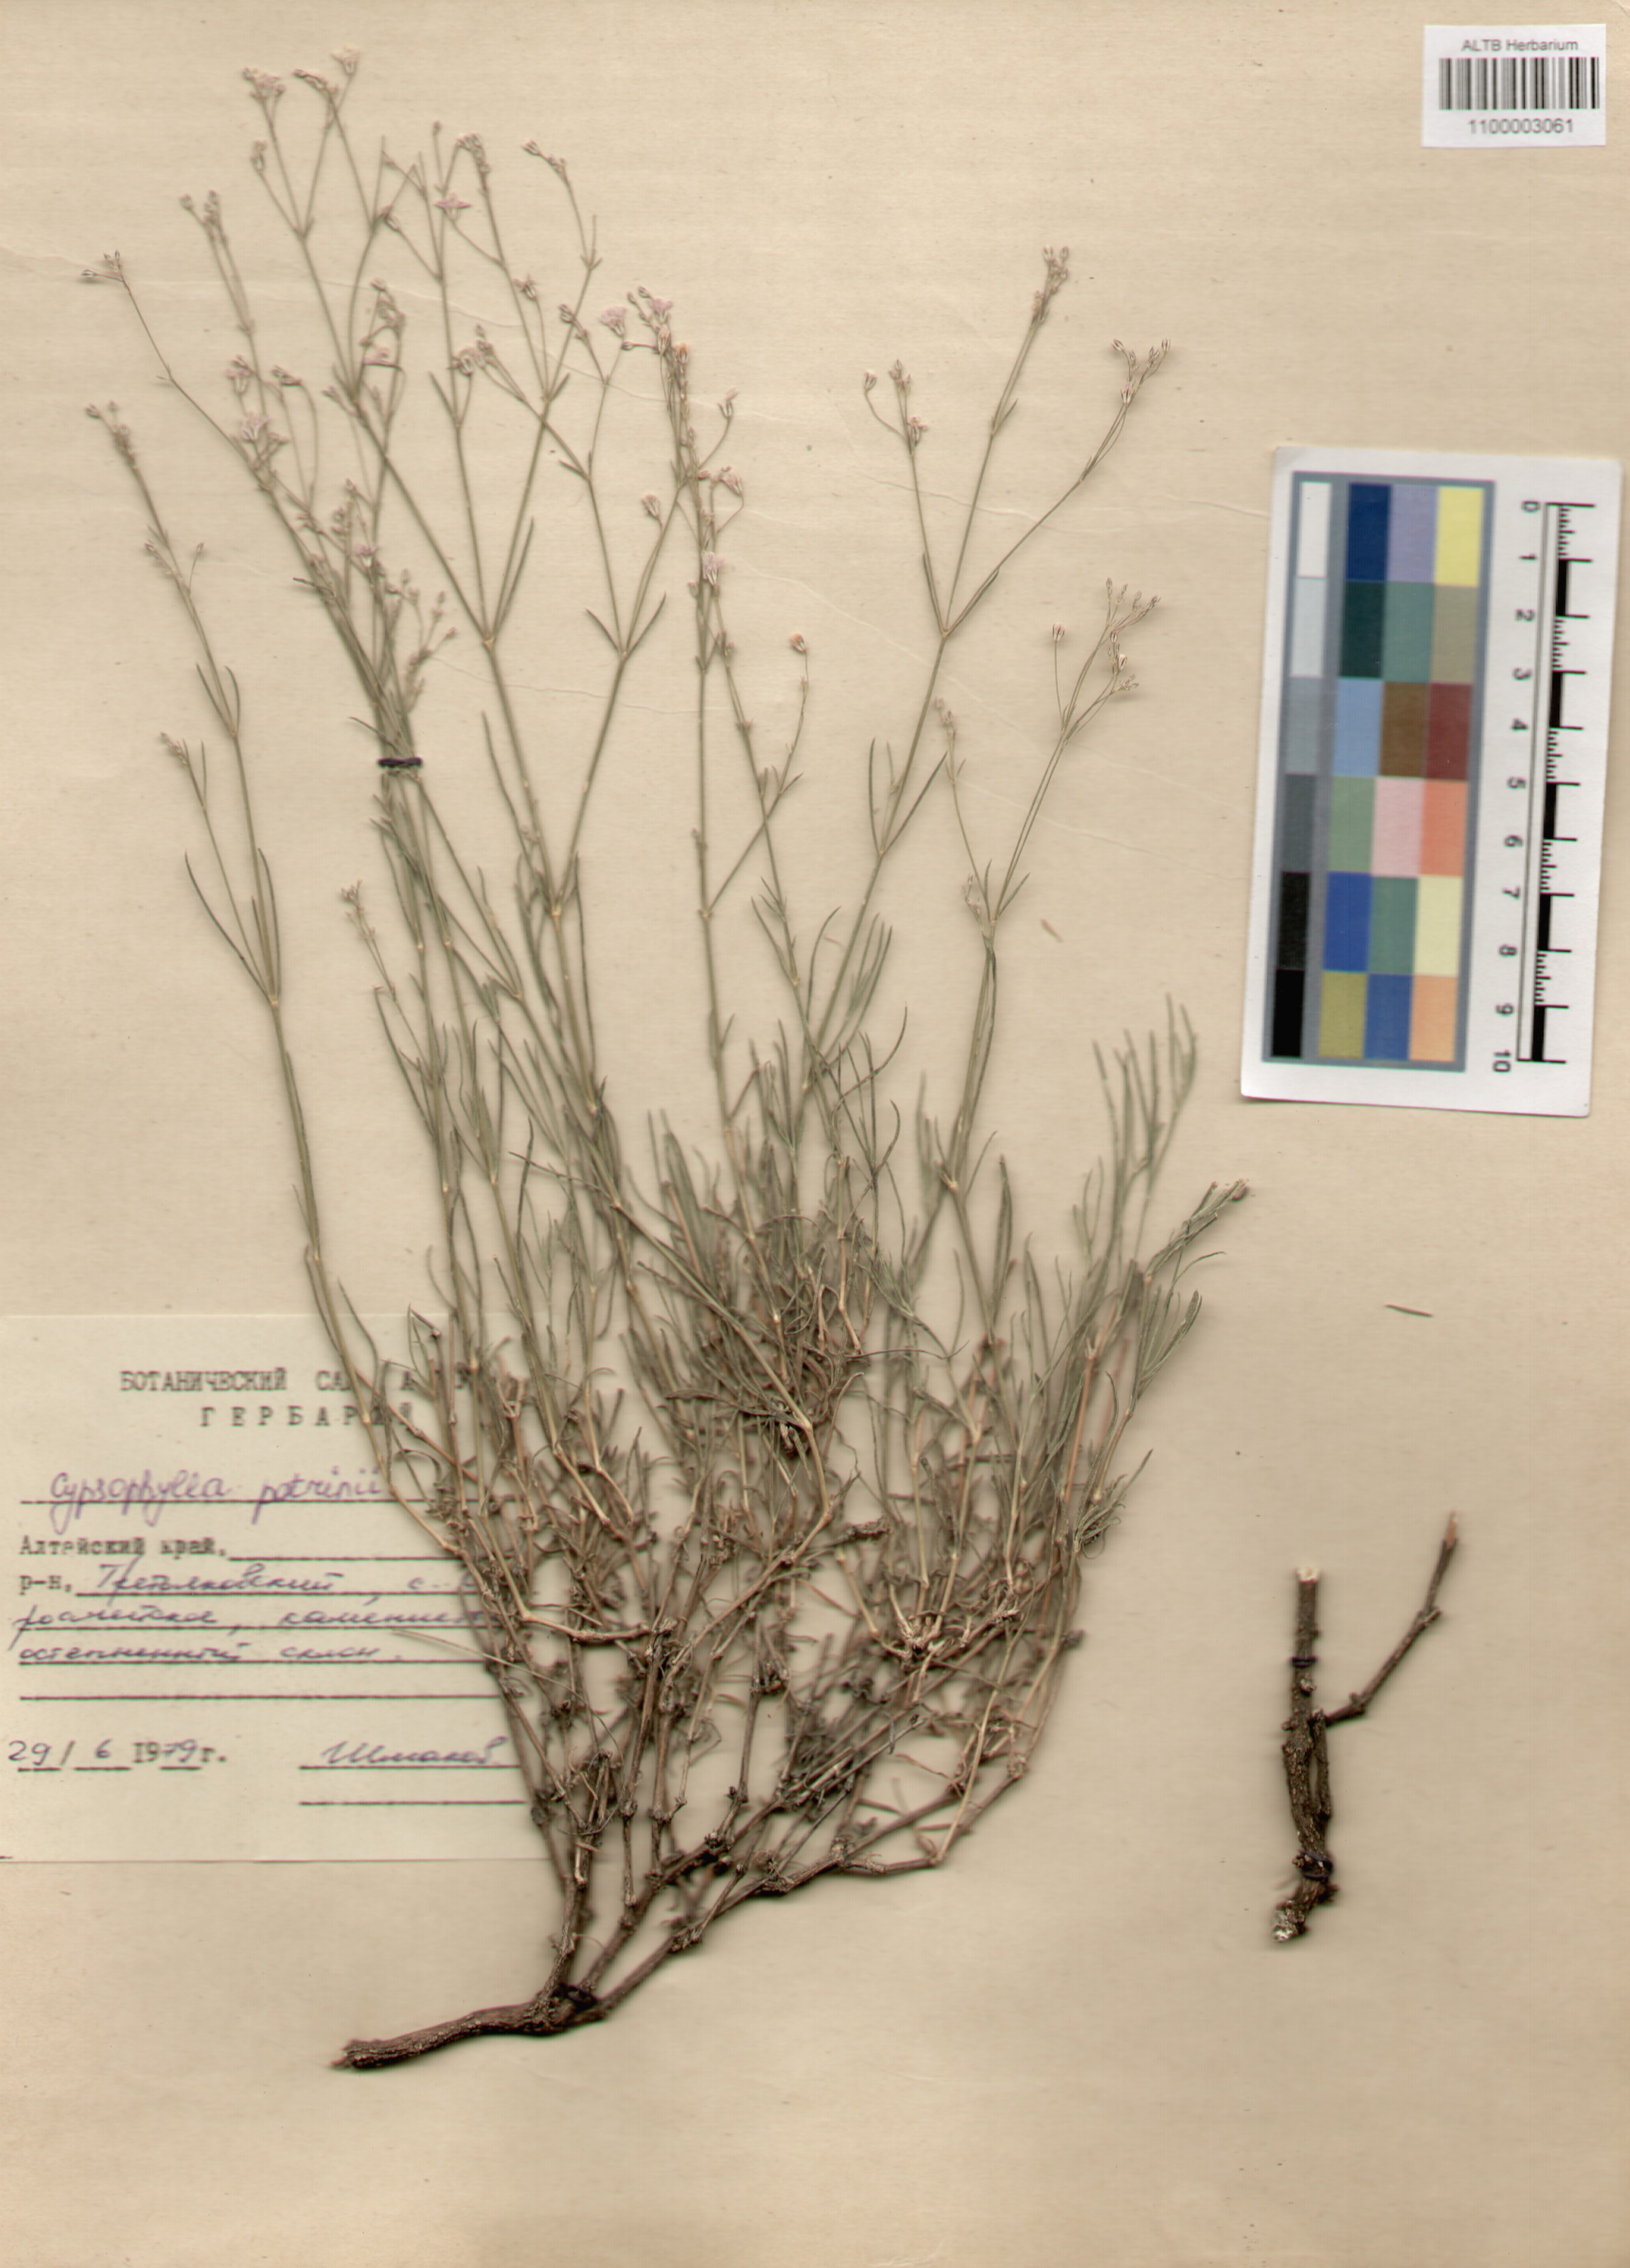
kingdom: Plantae
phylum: Tracheophyta
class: Magnoliopsida
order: Caryophyllales
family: Caryophyllaceae
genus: Gypsophila
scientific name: Gypsophila patrinii
